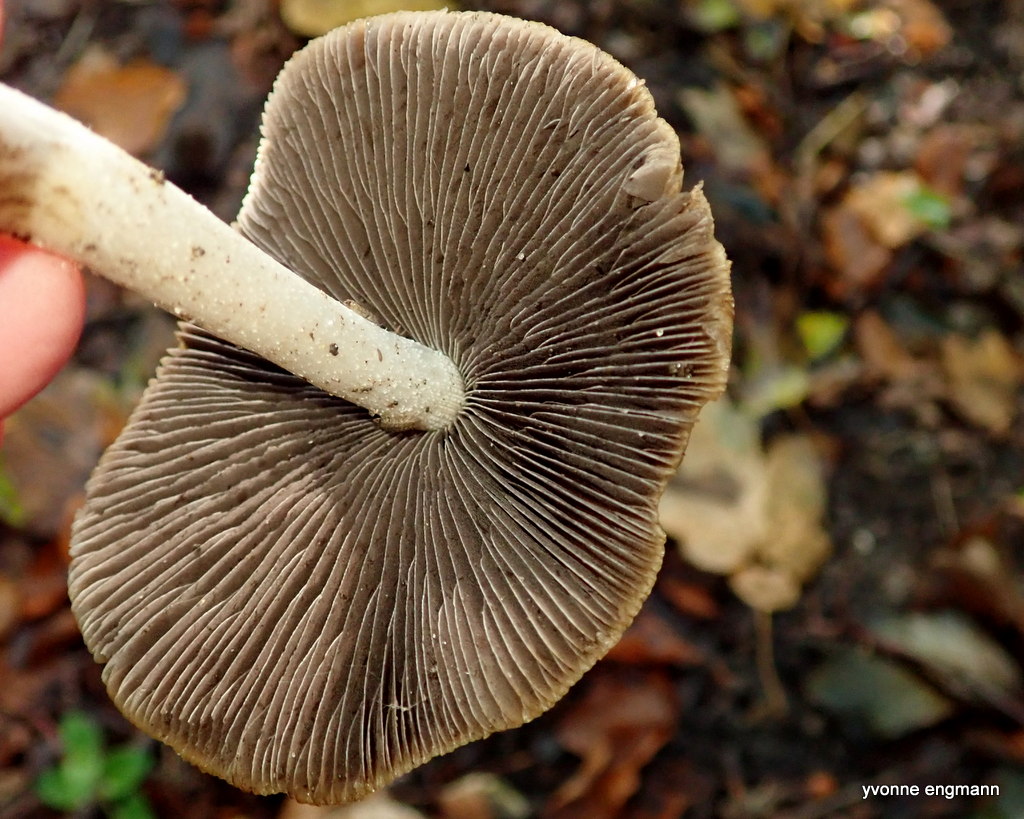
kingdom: Fungi
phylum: Basidiomycota
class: Agaricomycetes
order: Agaricales
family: Psathyrellaceae
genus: Psathyrella
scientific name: Psathyrella
